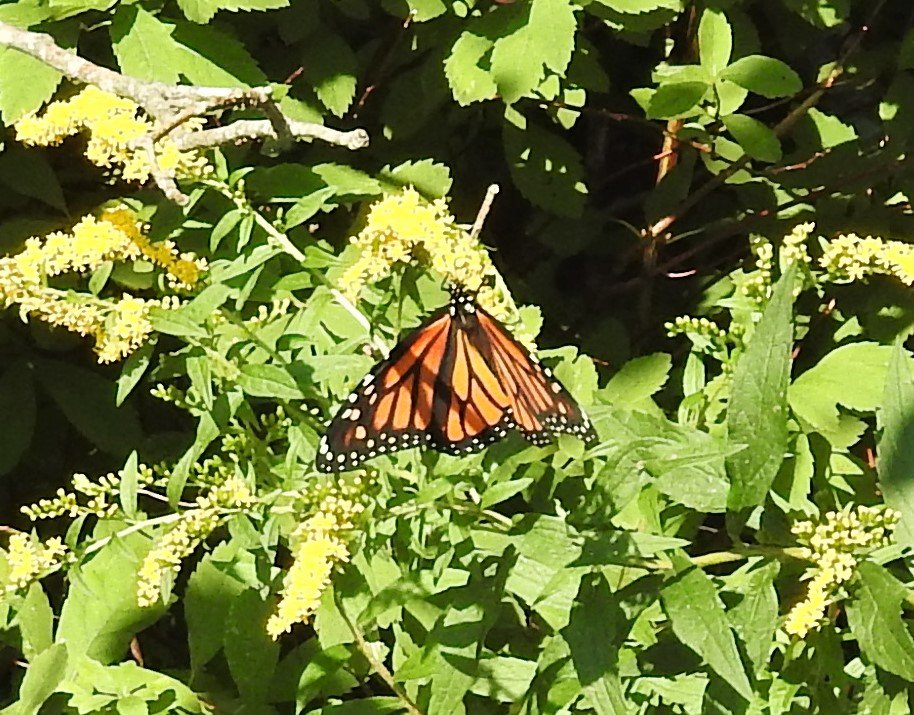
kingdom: Animalia
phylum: Arthropoda
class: Insecta
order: Lepidoptera
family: Nymphalidae
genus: Danaus
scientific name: Danaus plexippus
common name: Monarch
